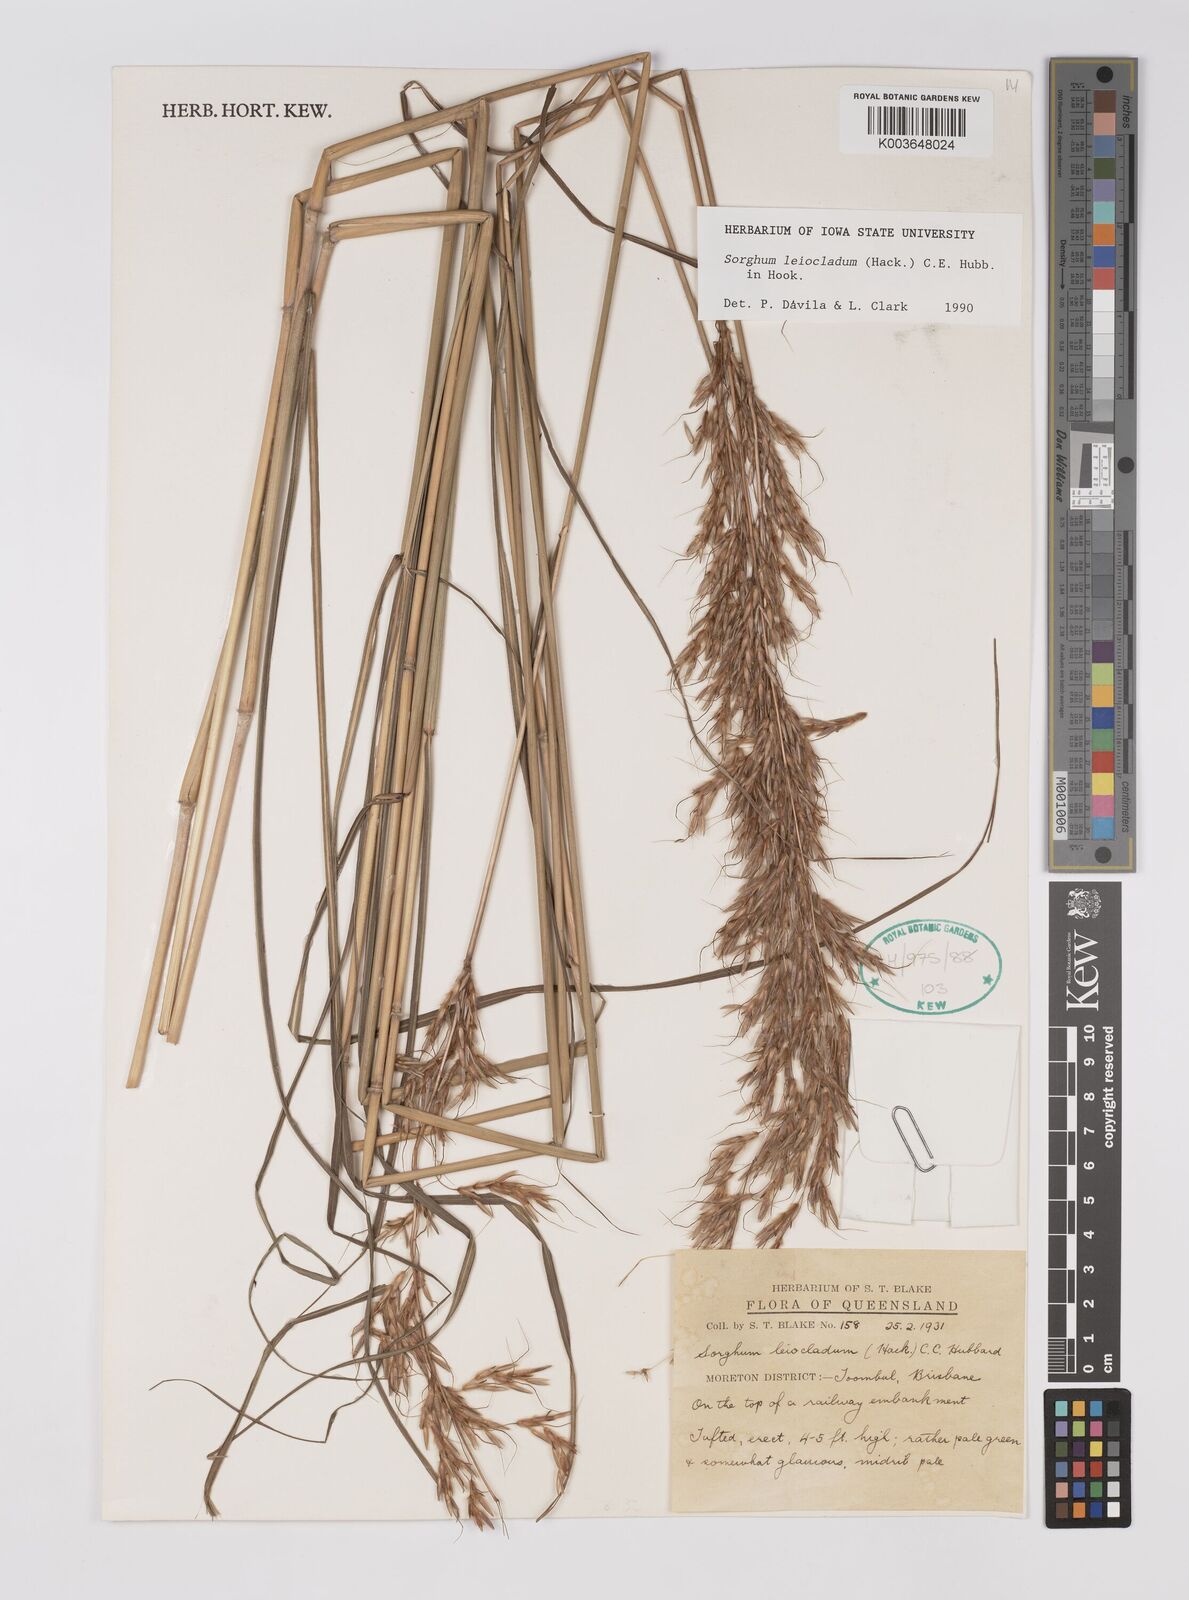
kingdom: Plantae
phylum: Tracheophyta
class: Liliopsida
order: Poales
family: Poaceae
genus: Sarga
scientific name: Sarga leioclada
